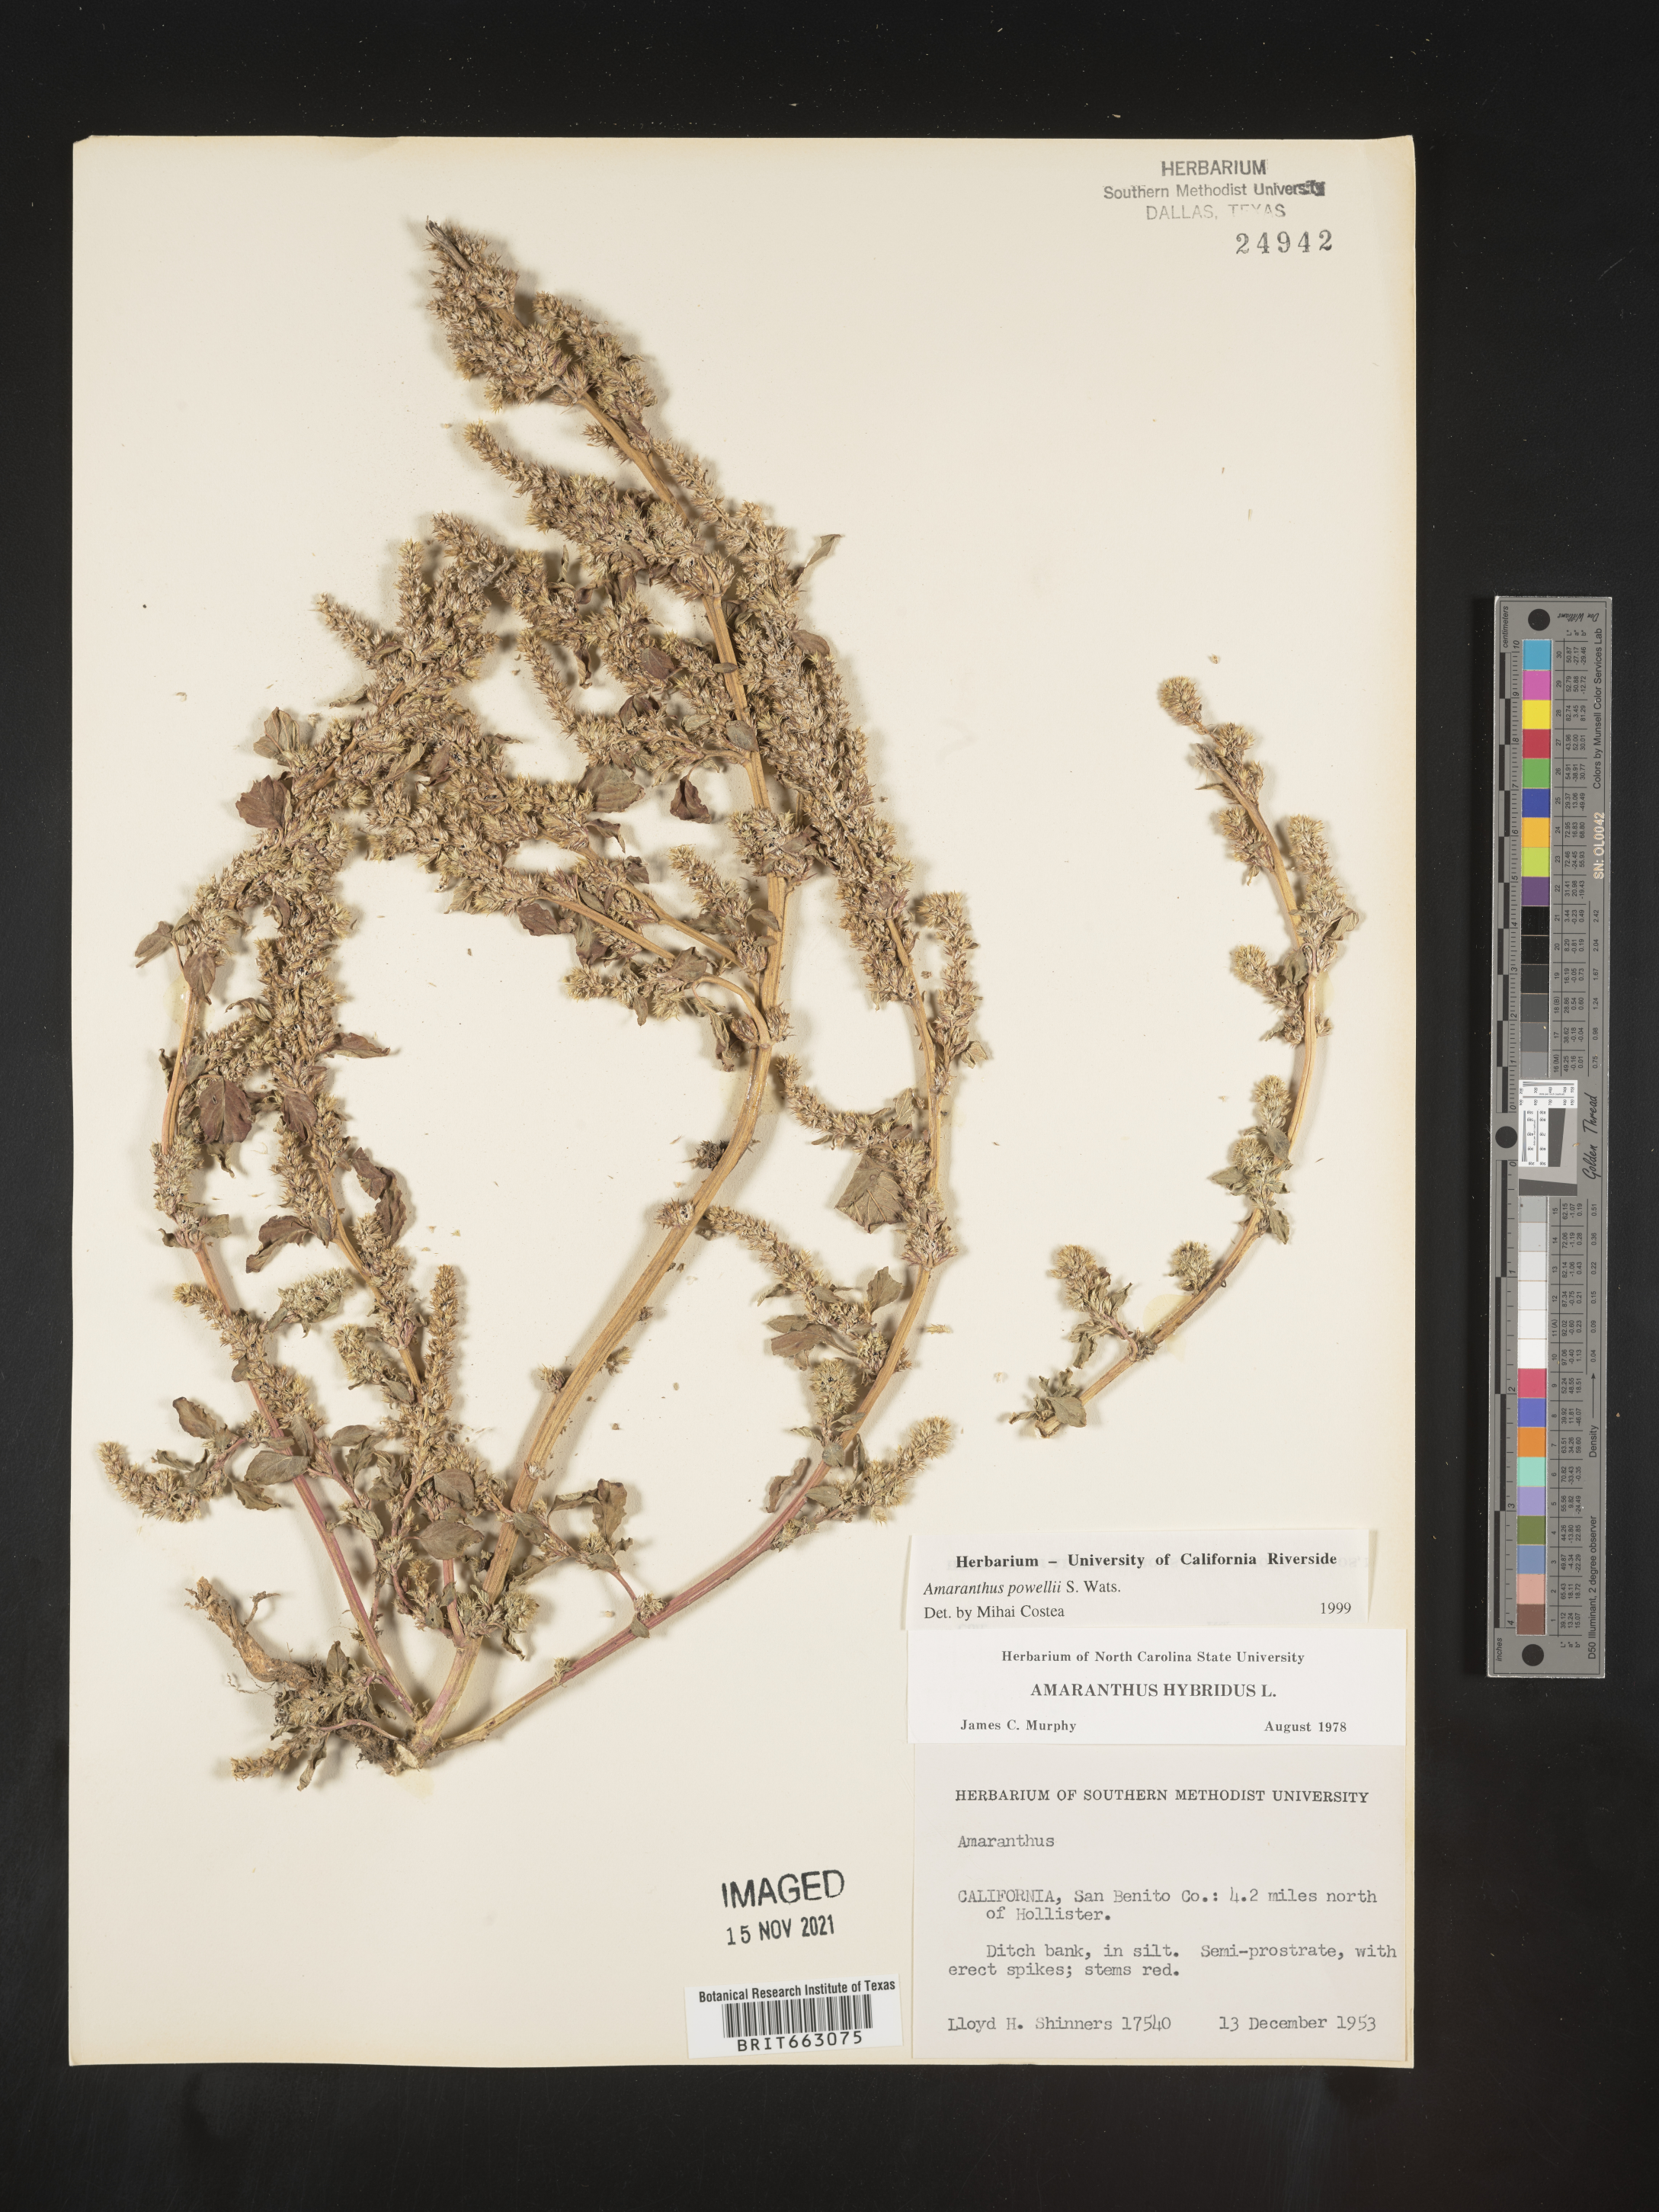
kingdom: Plantae
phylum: Tracheophyta
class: Magnoliopsida
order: Caryophyllales
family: Amaranthaceae
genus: Amaranthus
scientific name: Amaranthus powellii
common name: Powell's amaranth
